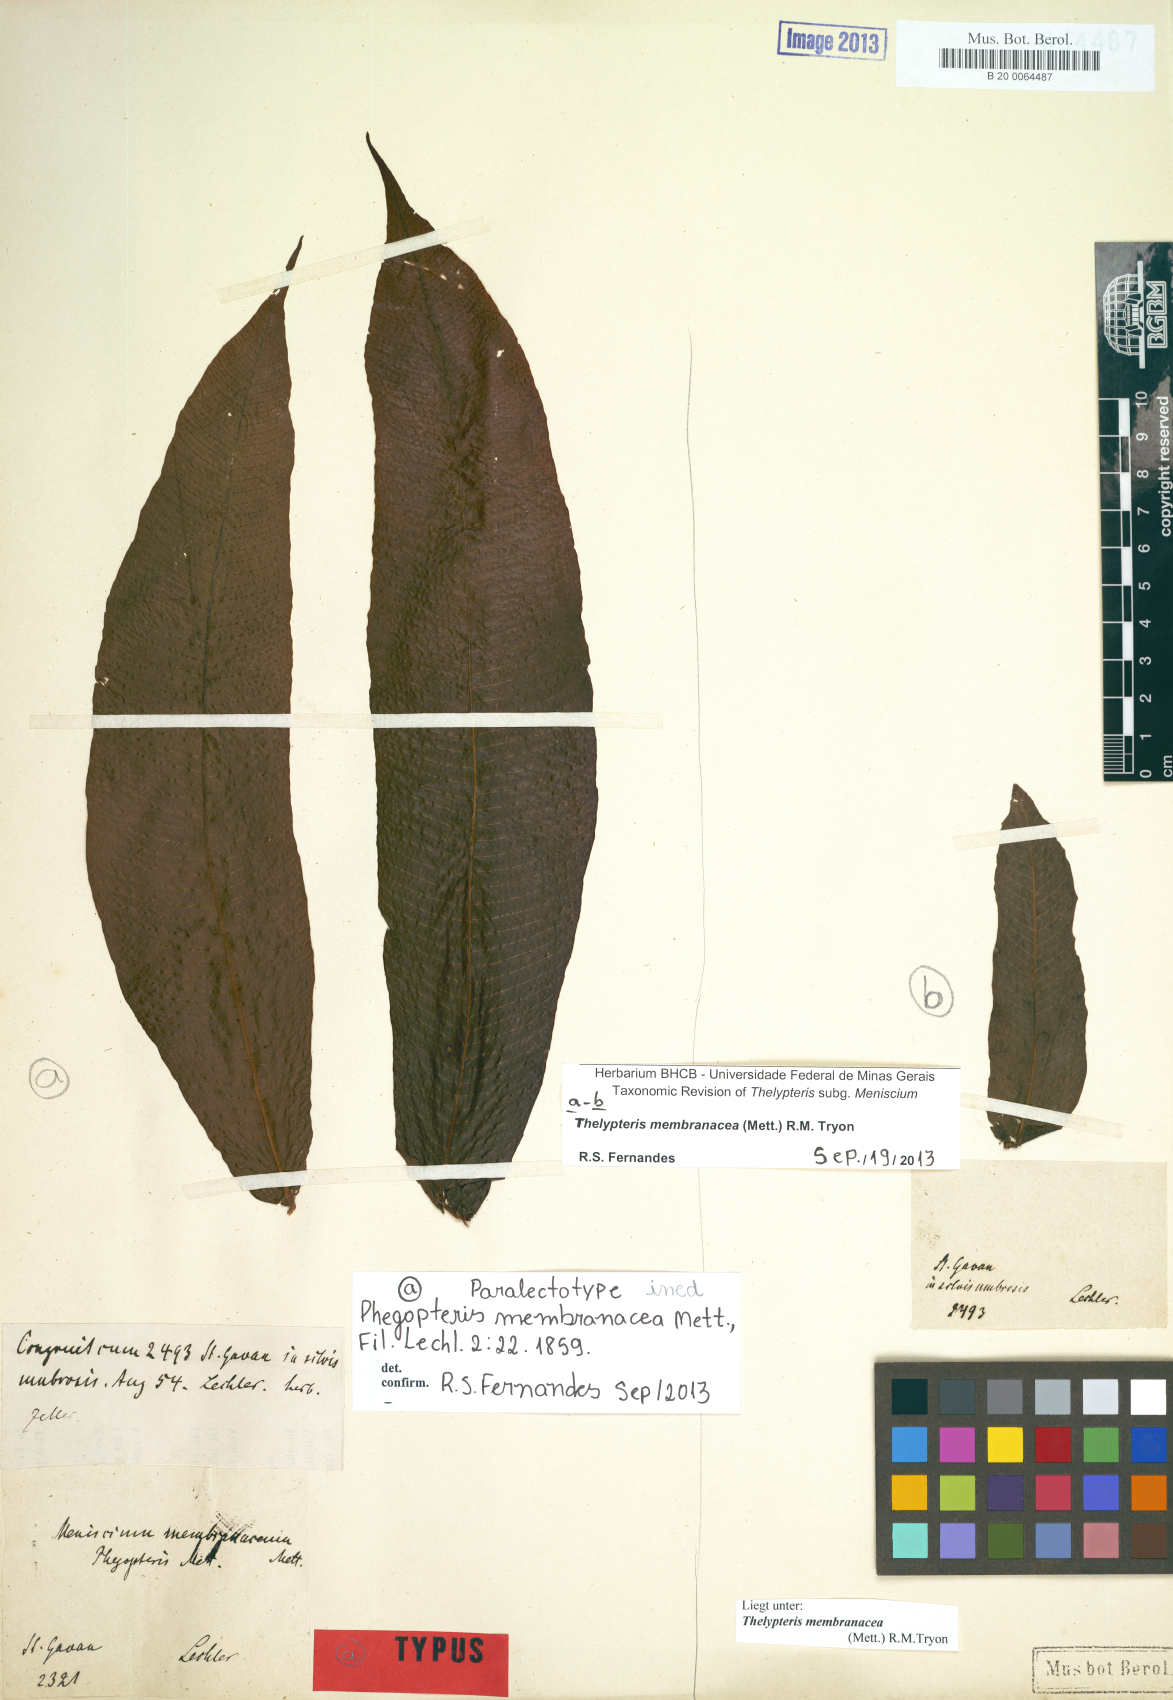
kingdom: Plantae
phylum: Tracheophyta
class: Polypodiopsida
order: Polypodiales
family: Thelypteridaceae
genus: Meniscium
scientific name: Meniscium membranaceum
